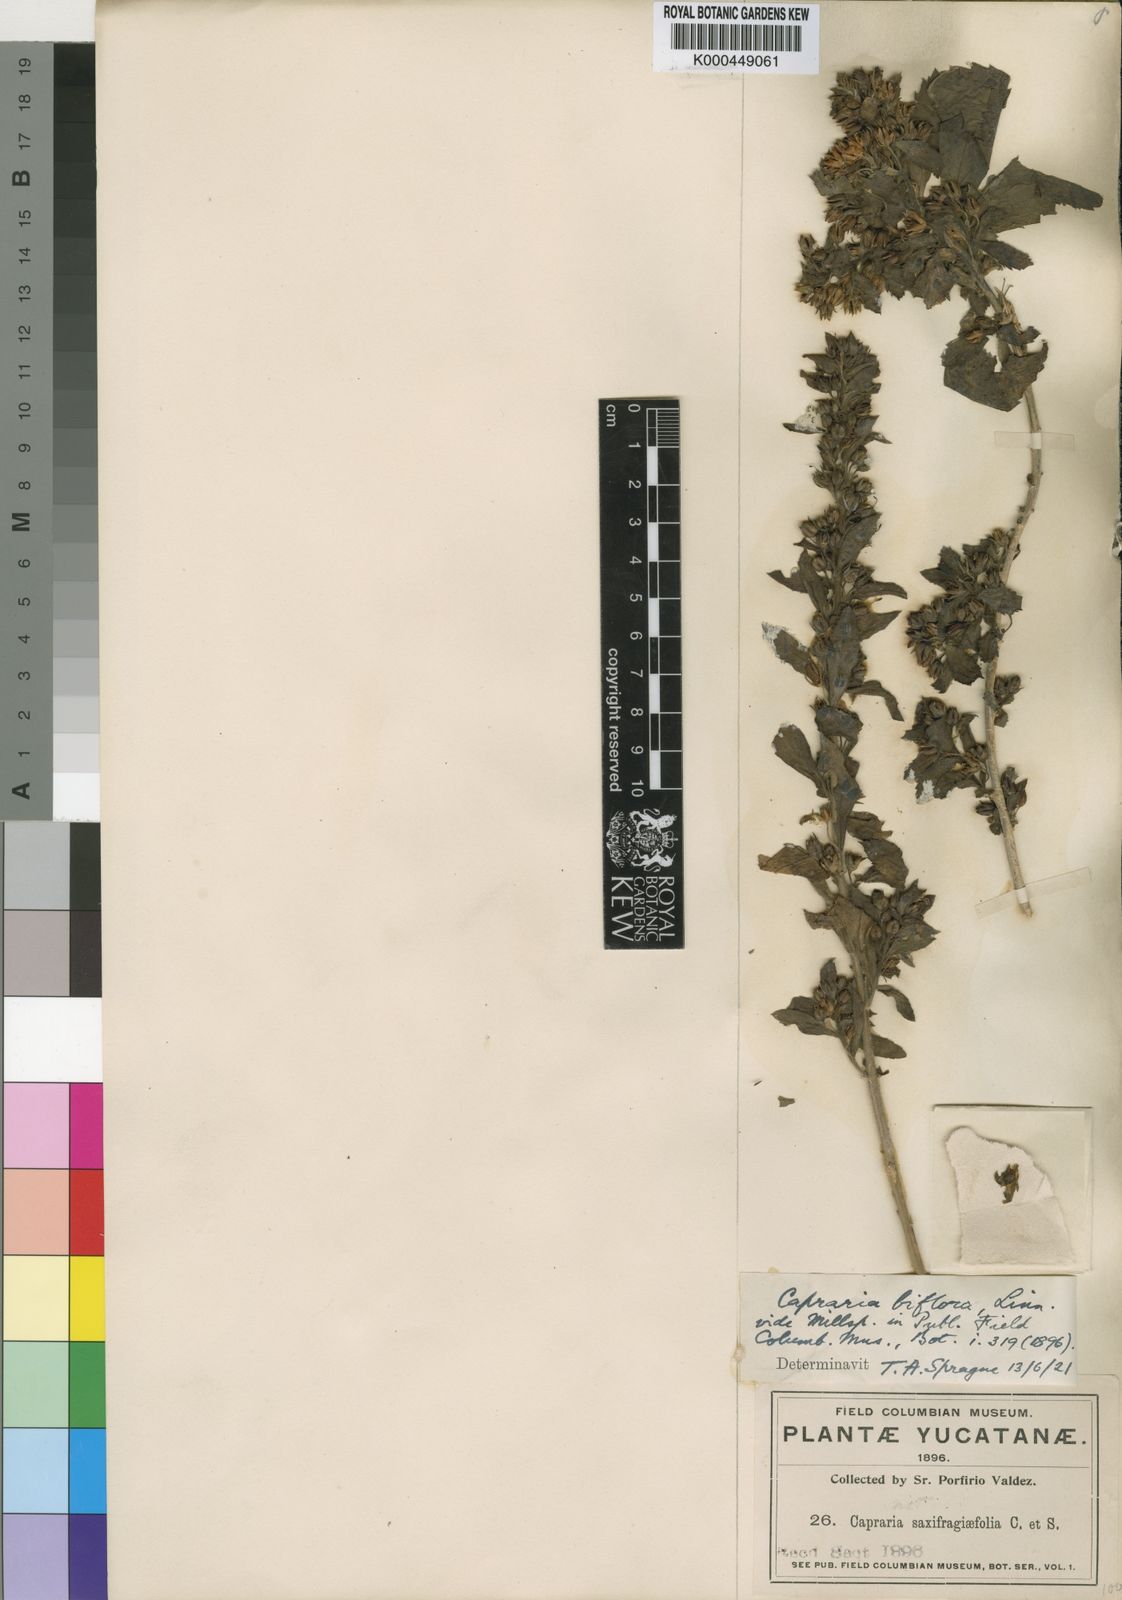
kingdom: Plantae
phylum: Tracheophyta
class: Magnoliopsida
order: Lamiales
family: Scrophulariaceae
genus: Capraria
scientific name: Capraria biflora
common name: Goatweed
